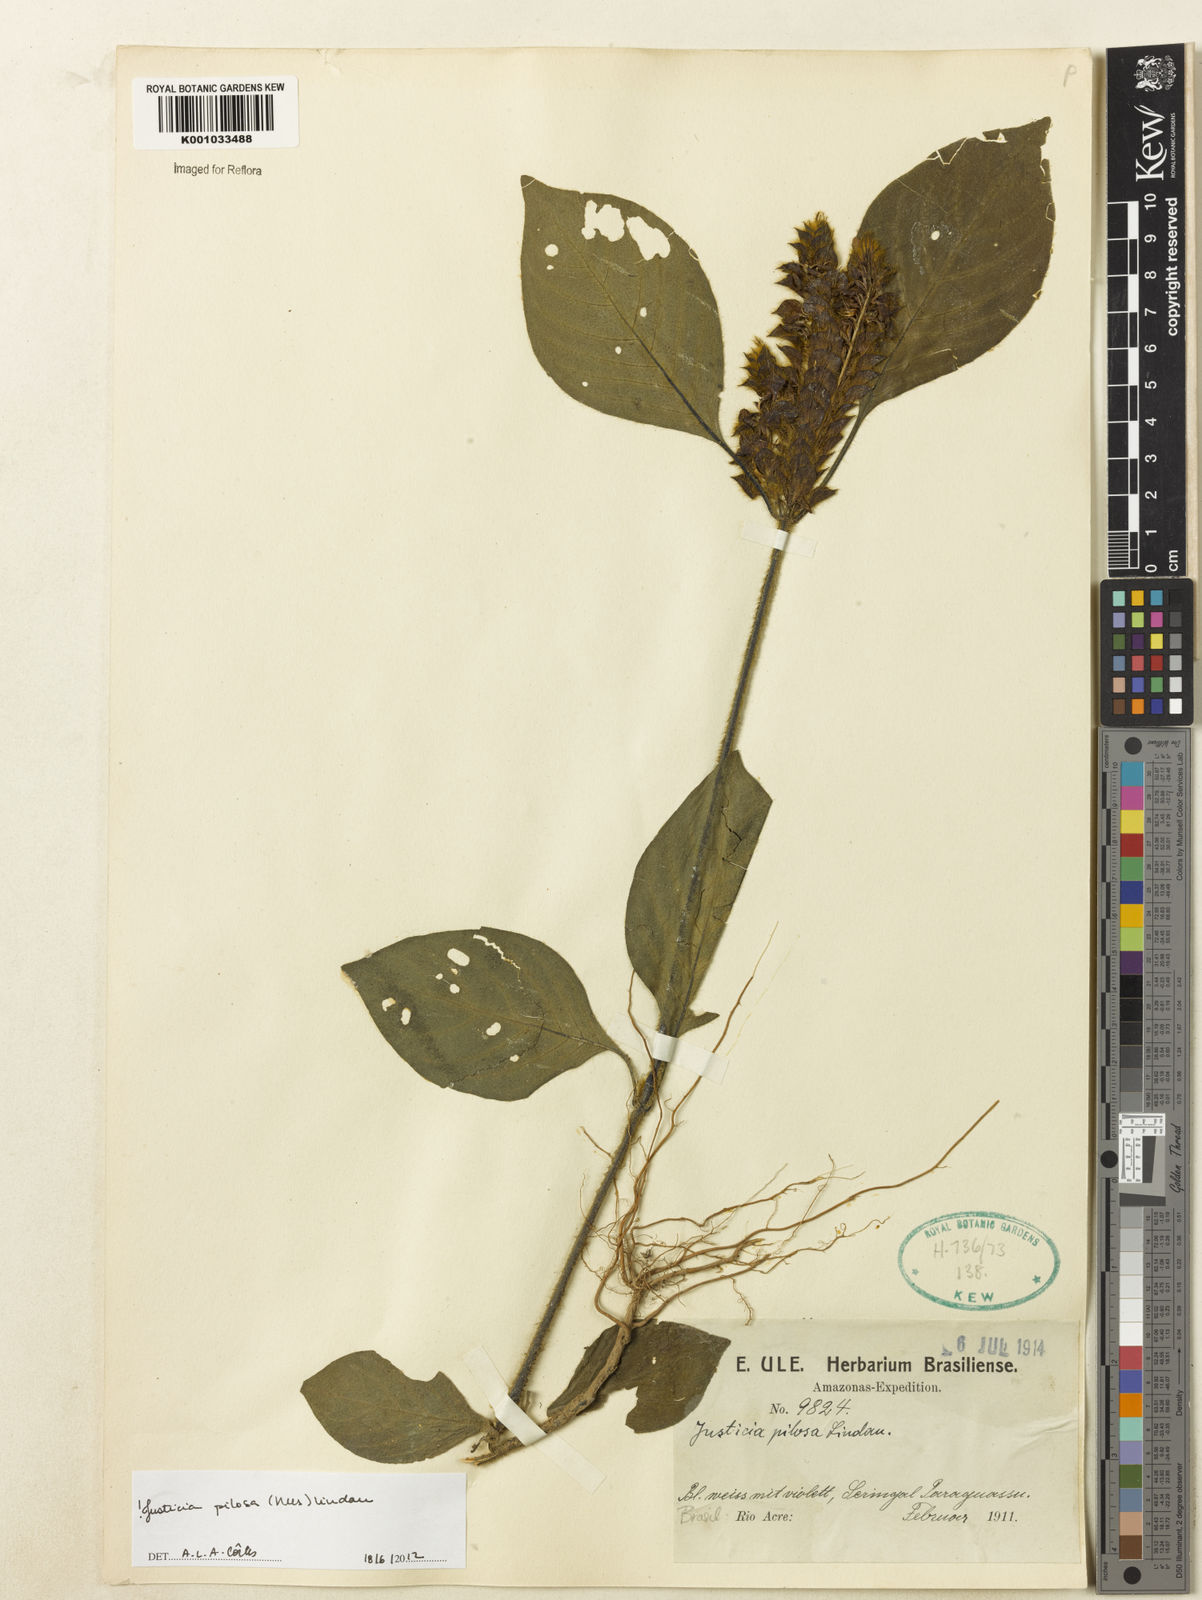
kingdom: Plantae
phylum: Tracheophyta
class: Magnoliopsida
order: Lamiales
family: Acanthaceae
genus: Justicia
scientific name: Justicia pilosa
